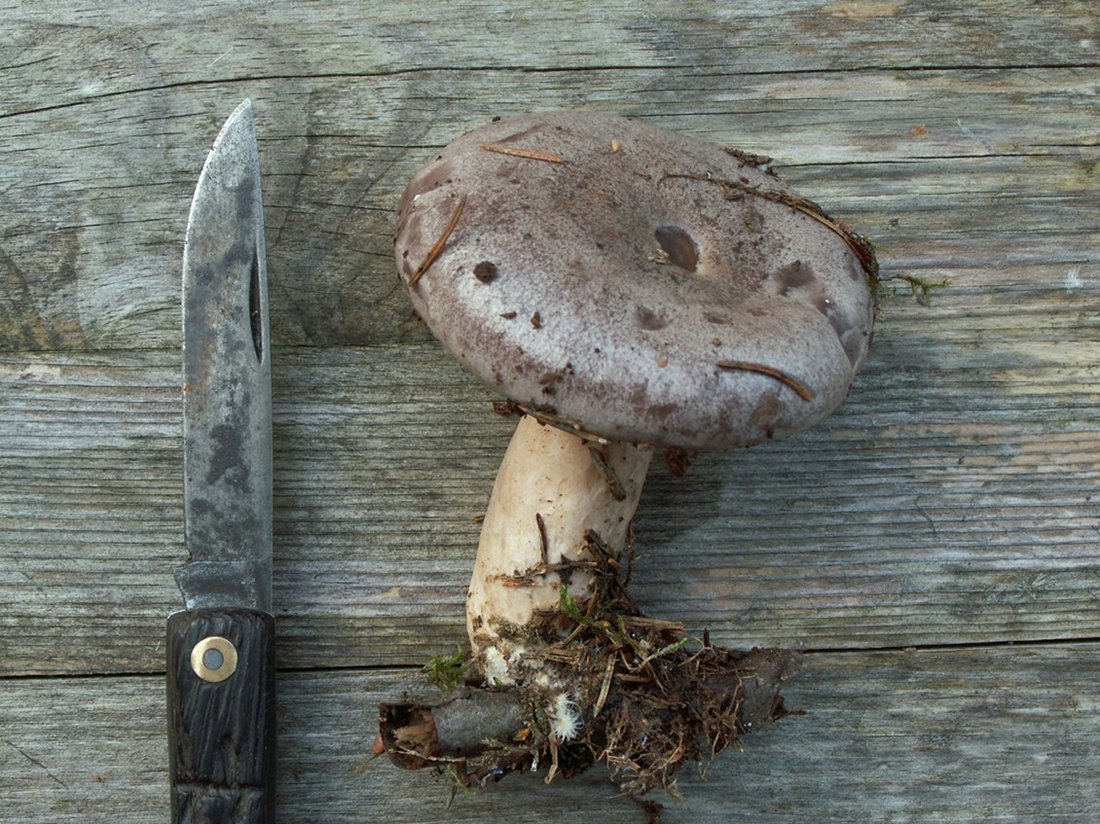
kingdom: Fungi
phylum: Basidiomycota
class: Agaricomycetes
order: Russulales
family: Russulaceae
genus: Lactarius
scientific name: Lactarius trivialis
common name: nordisk mælkehat
